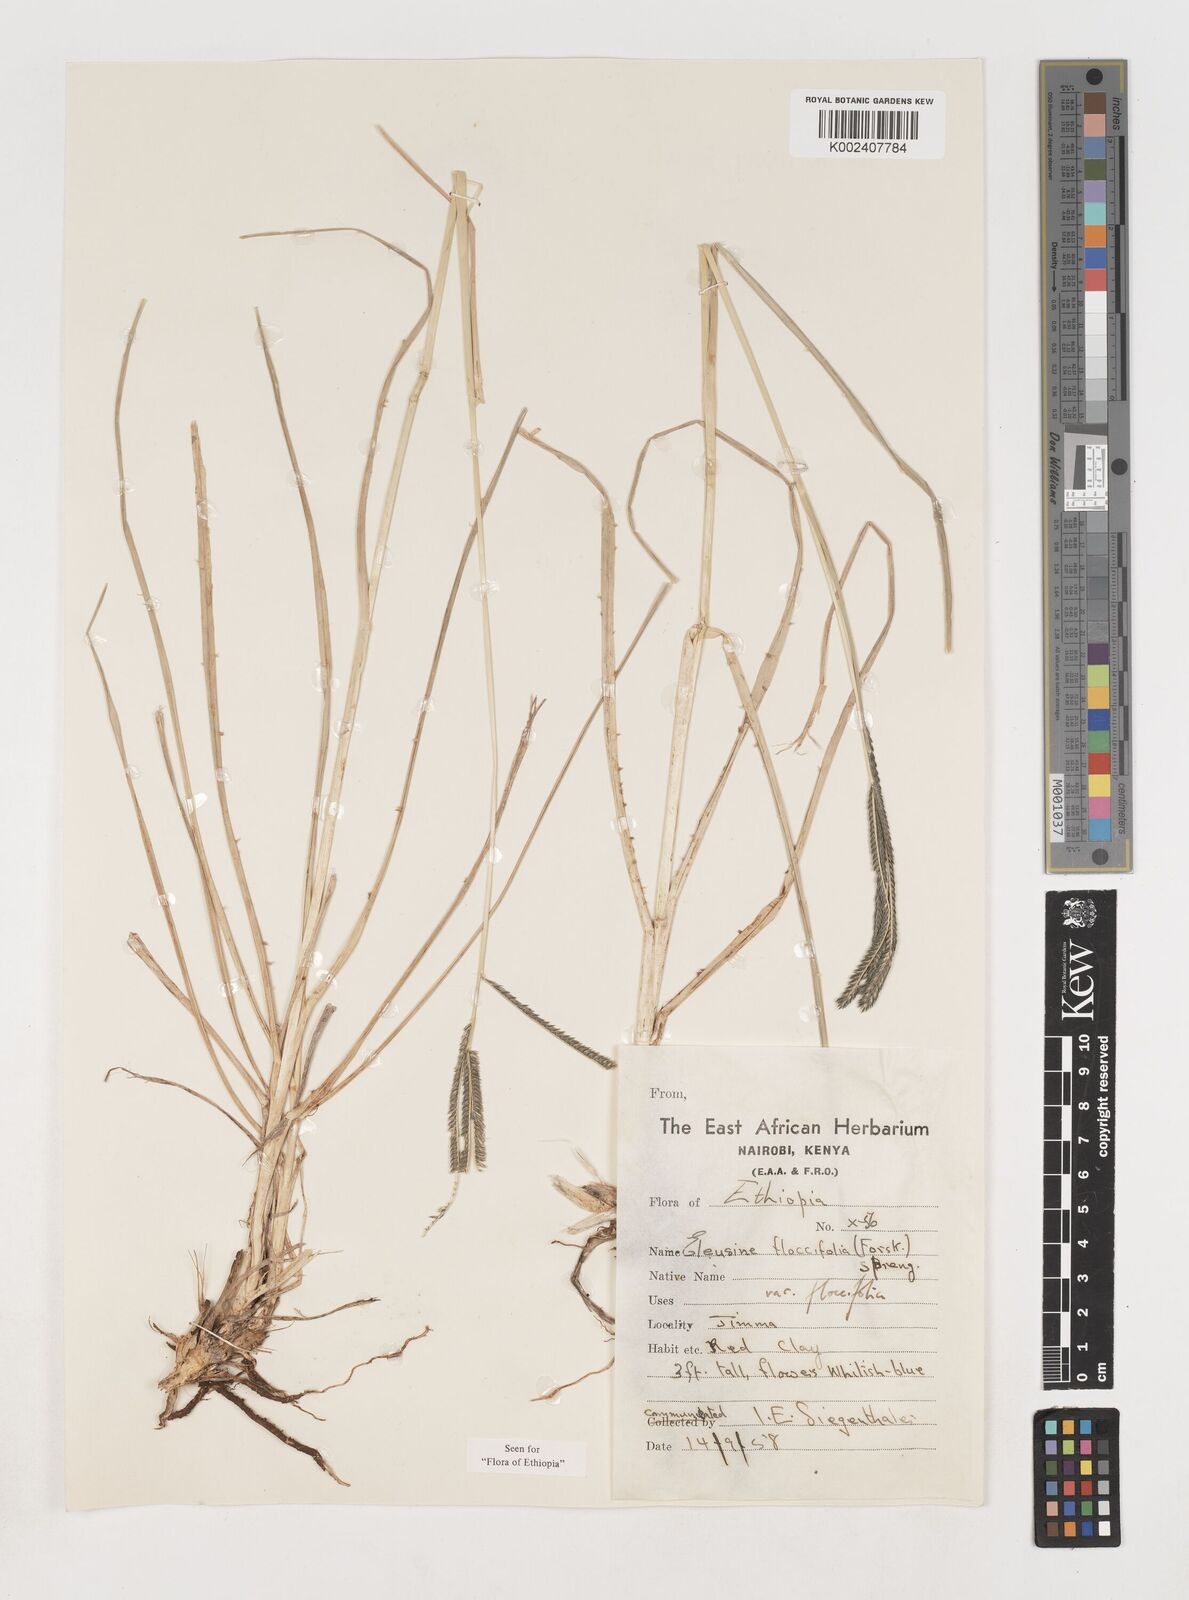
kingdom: Plantae
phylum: Tracheophyta
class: Liliopsida
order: Poales
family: Poaceae
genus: Eleusine
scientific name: Eleusine floccifolia
